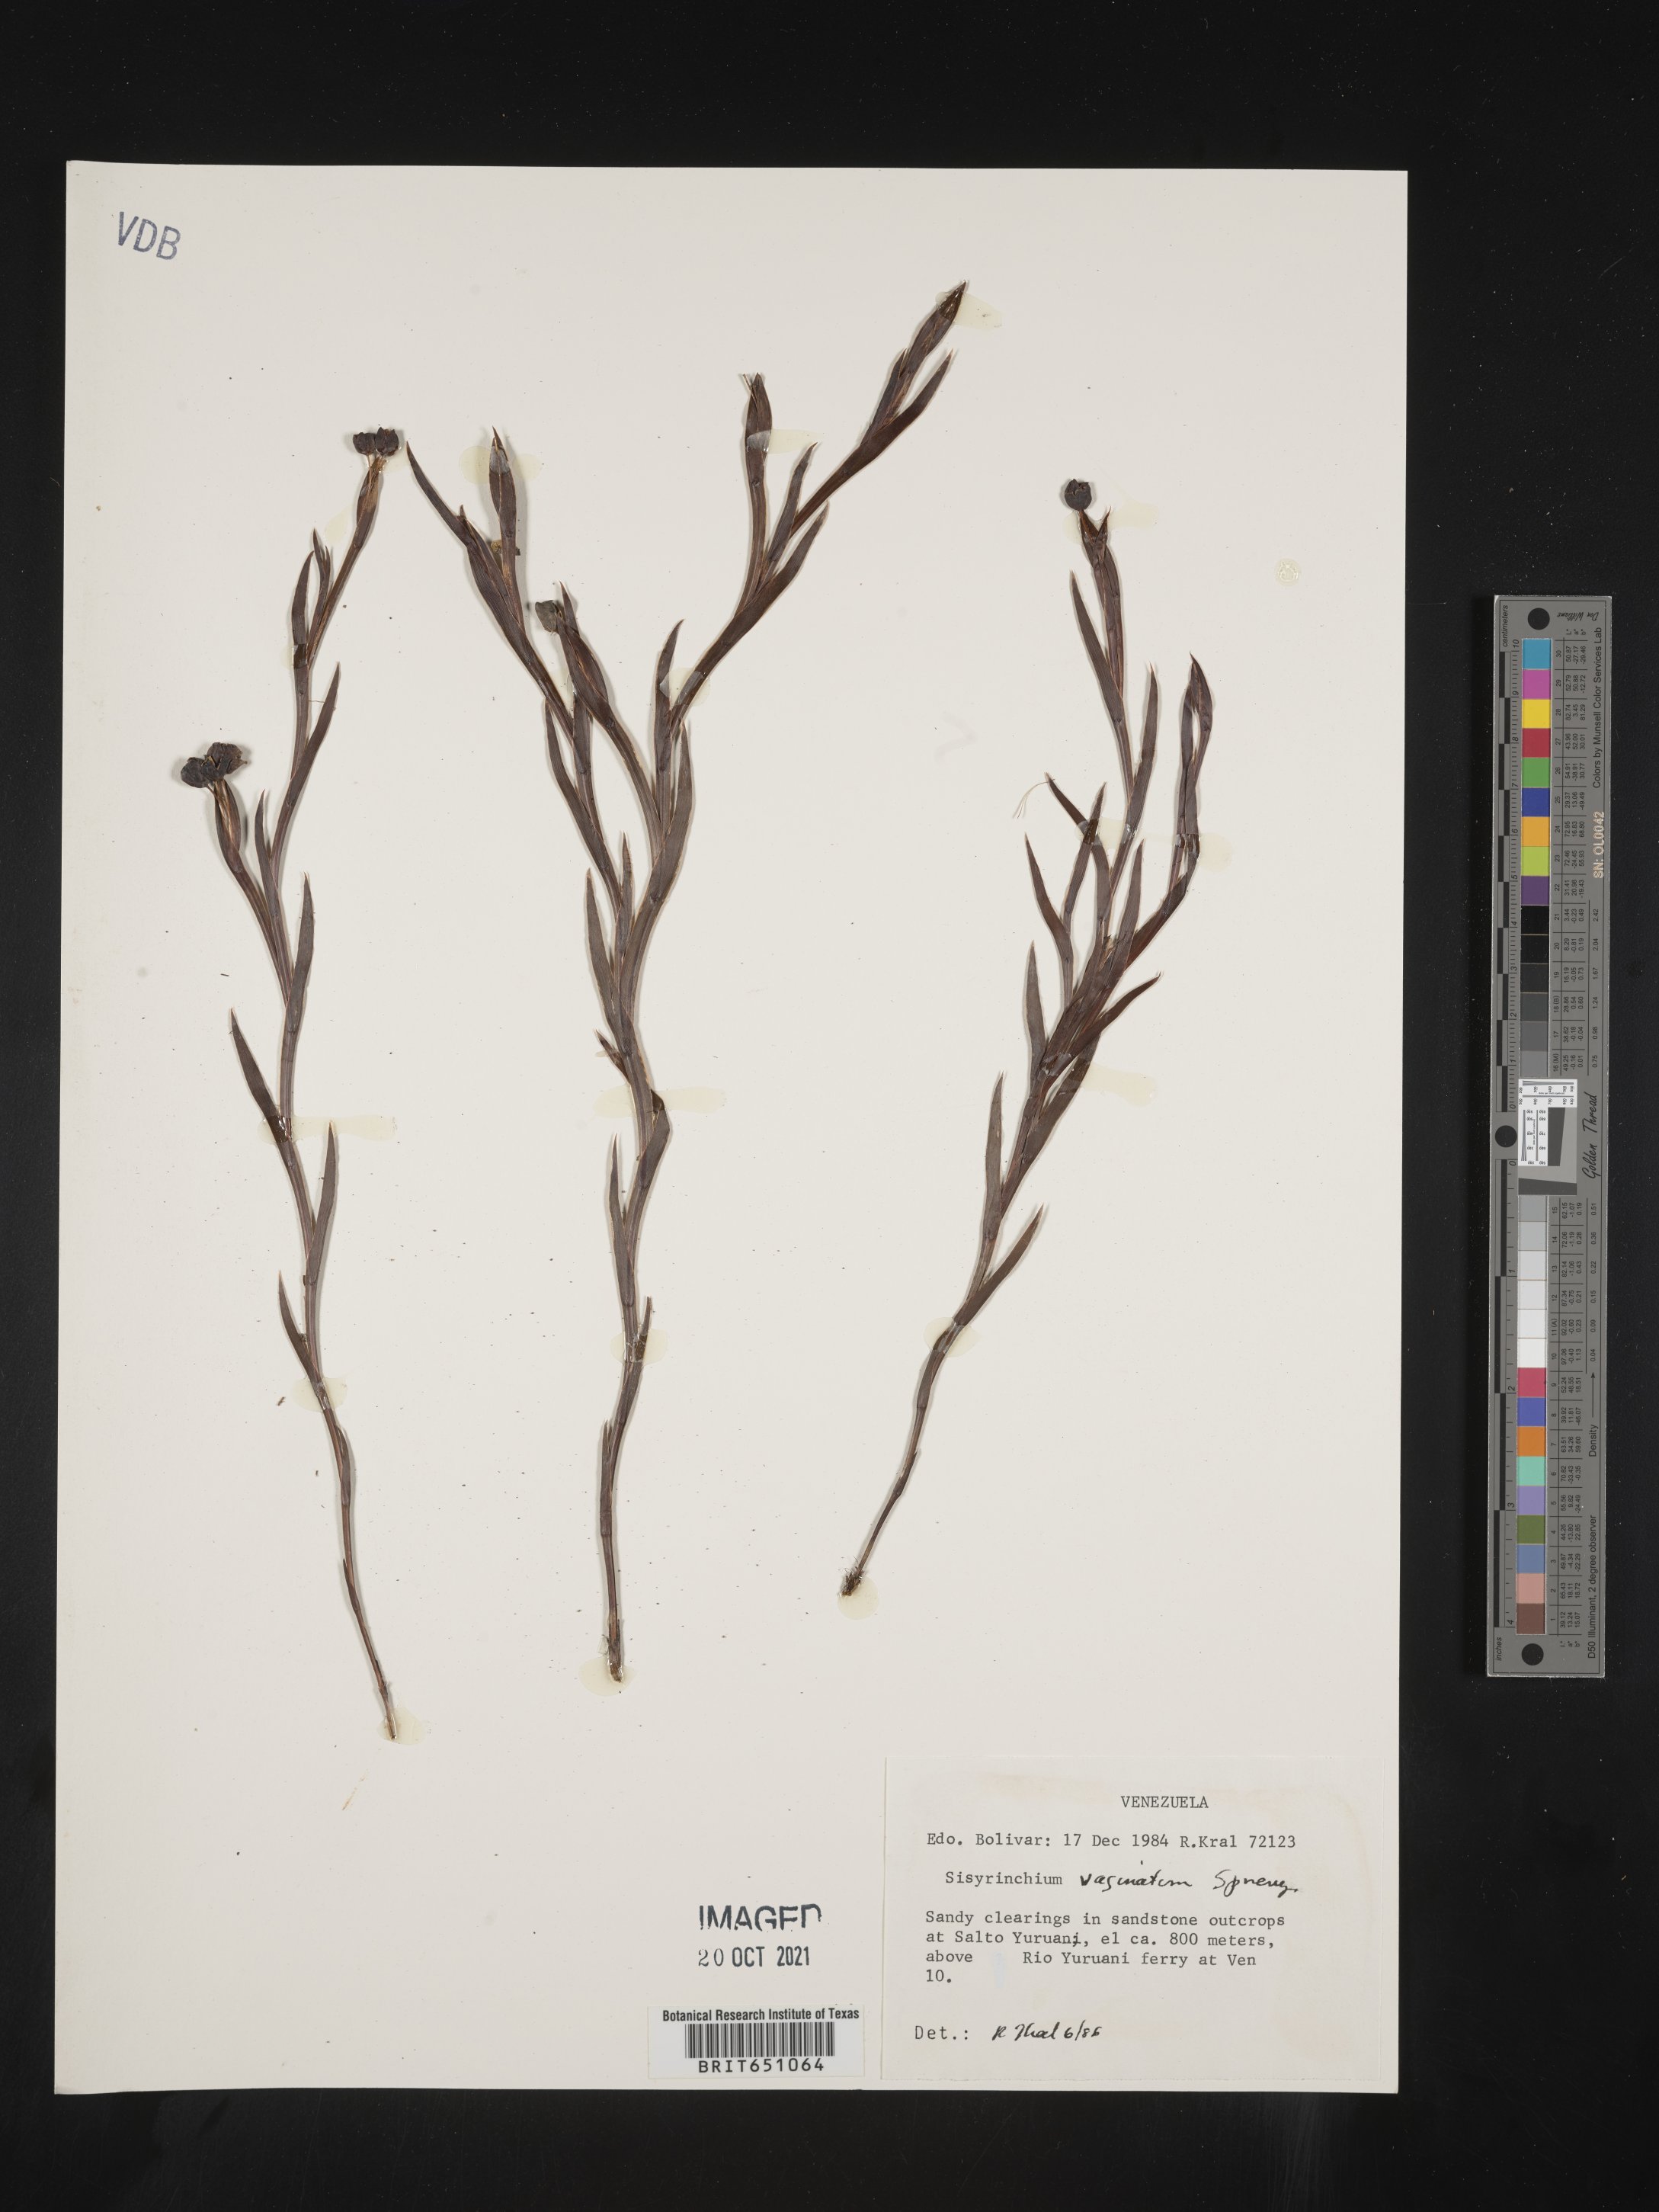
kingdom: Plantae
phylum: Tracheophyta
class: Liliopsida
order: Asparagales
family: Iridaceae
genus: Sisyrinchium
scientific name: Sisyrinchium
